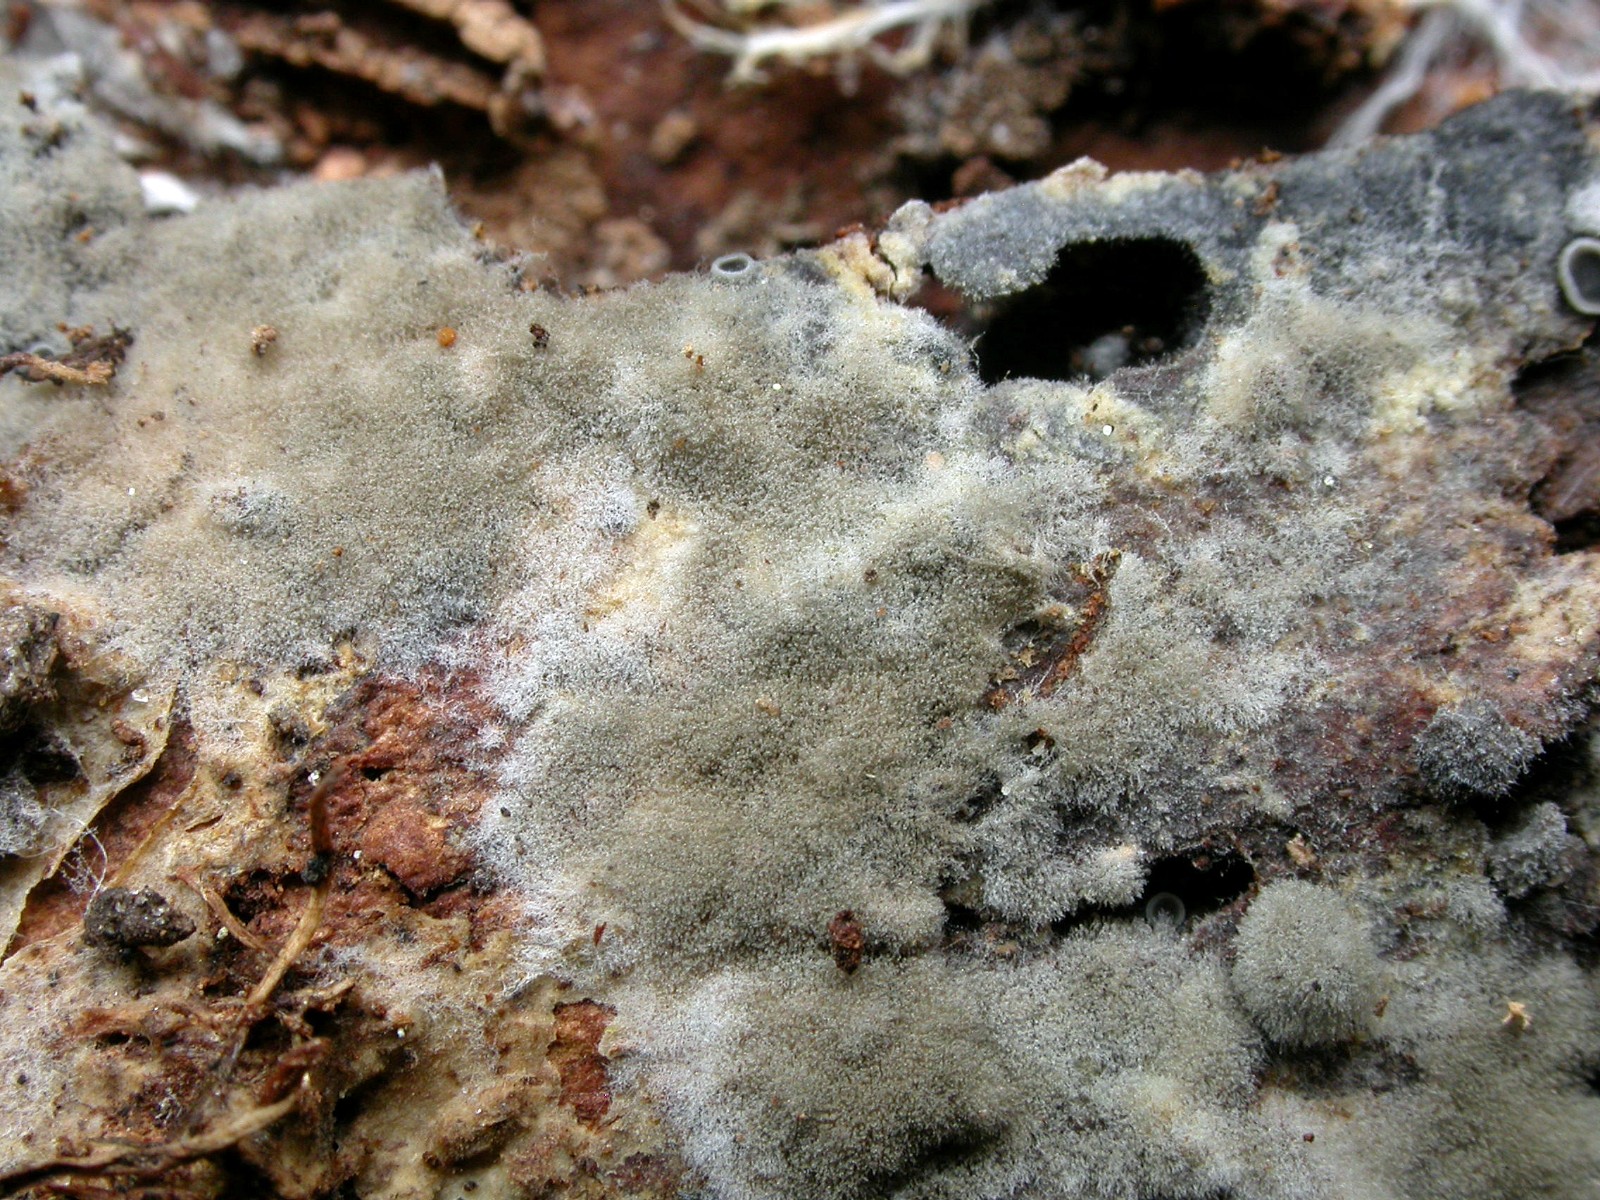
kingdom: Fungi
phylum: Basidiomycota
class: Agaricomycetes
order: Cantharellales
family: Botryobasidiaceae
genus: Botryobasidium
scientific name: Botryobasidium conspersum
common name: olivengrå spindhinde
